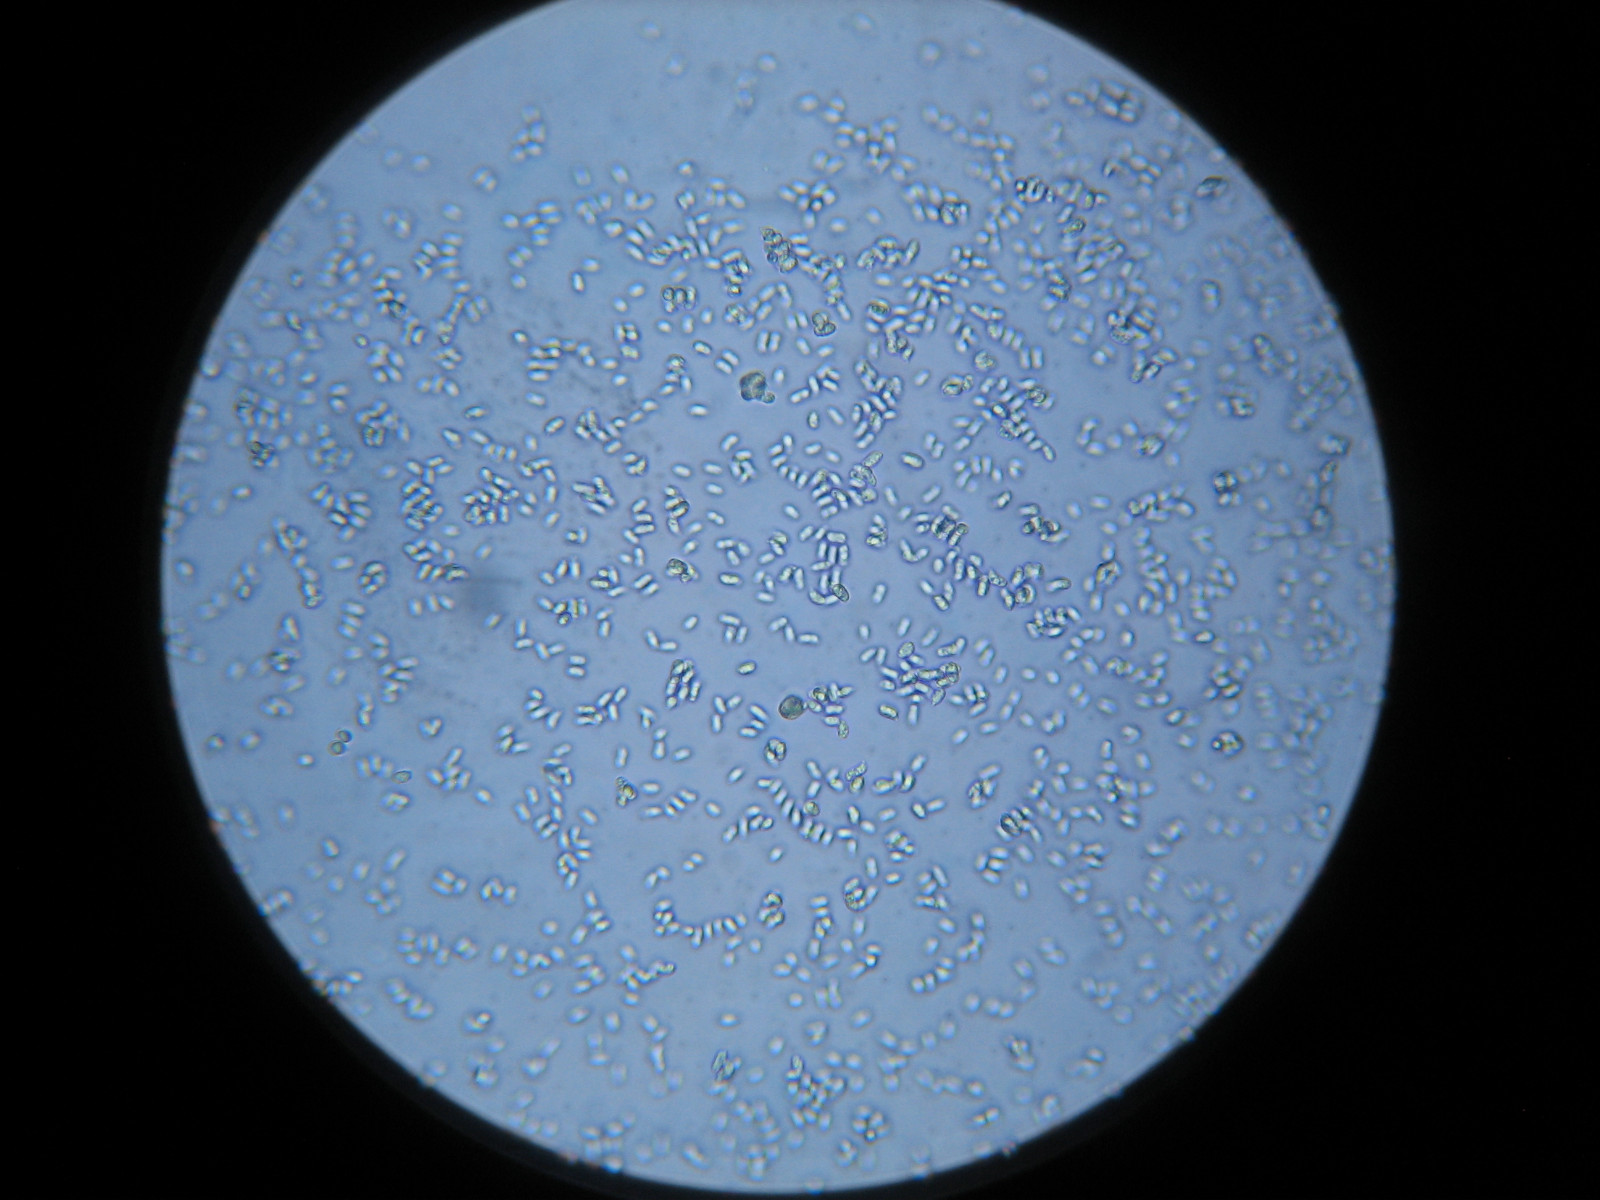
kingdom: Fungi
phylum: Basidiomycota
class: Agaricomycetes
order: Agaricales
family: Hygrophoraceae
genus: Hygrocybe
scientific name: Hygrocybe ceracea
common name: voksgul vokshat
